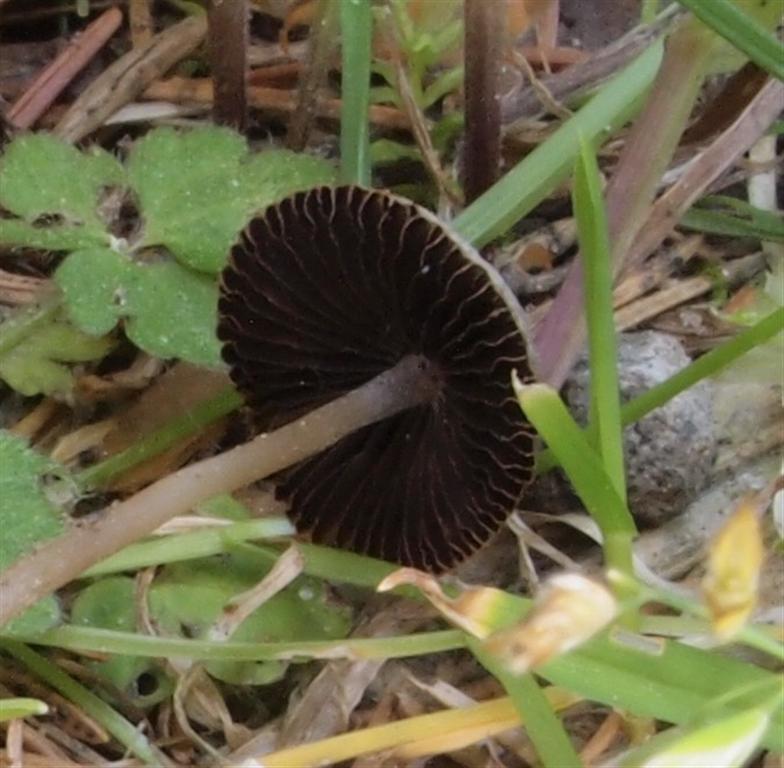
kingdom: Fungi
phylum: Basidiomycota
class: Agaricomycetes
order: Agaricales
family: Psathyrellaceae
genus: Psathyrella
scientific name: Psathyrella prona
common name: vej-mørkhat
